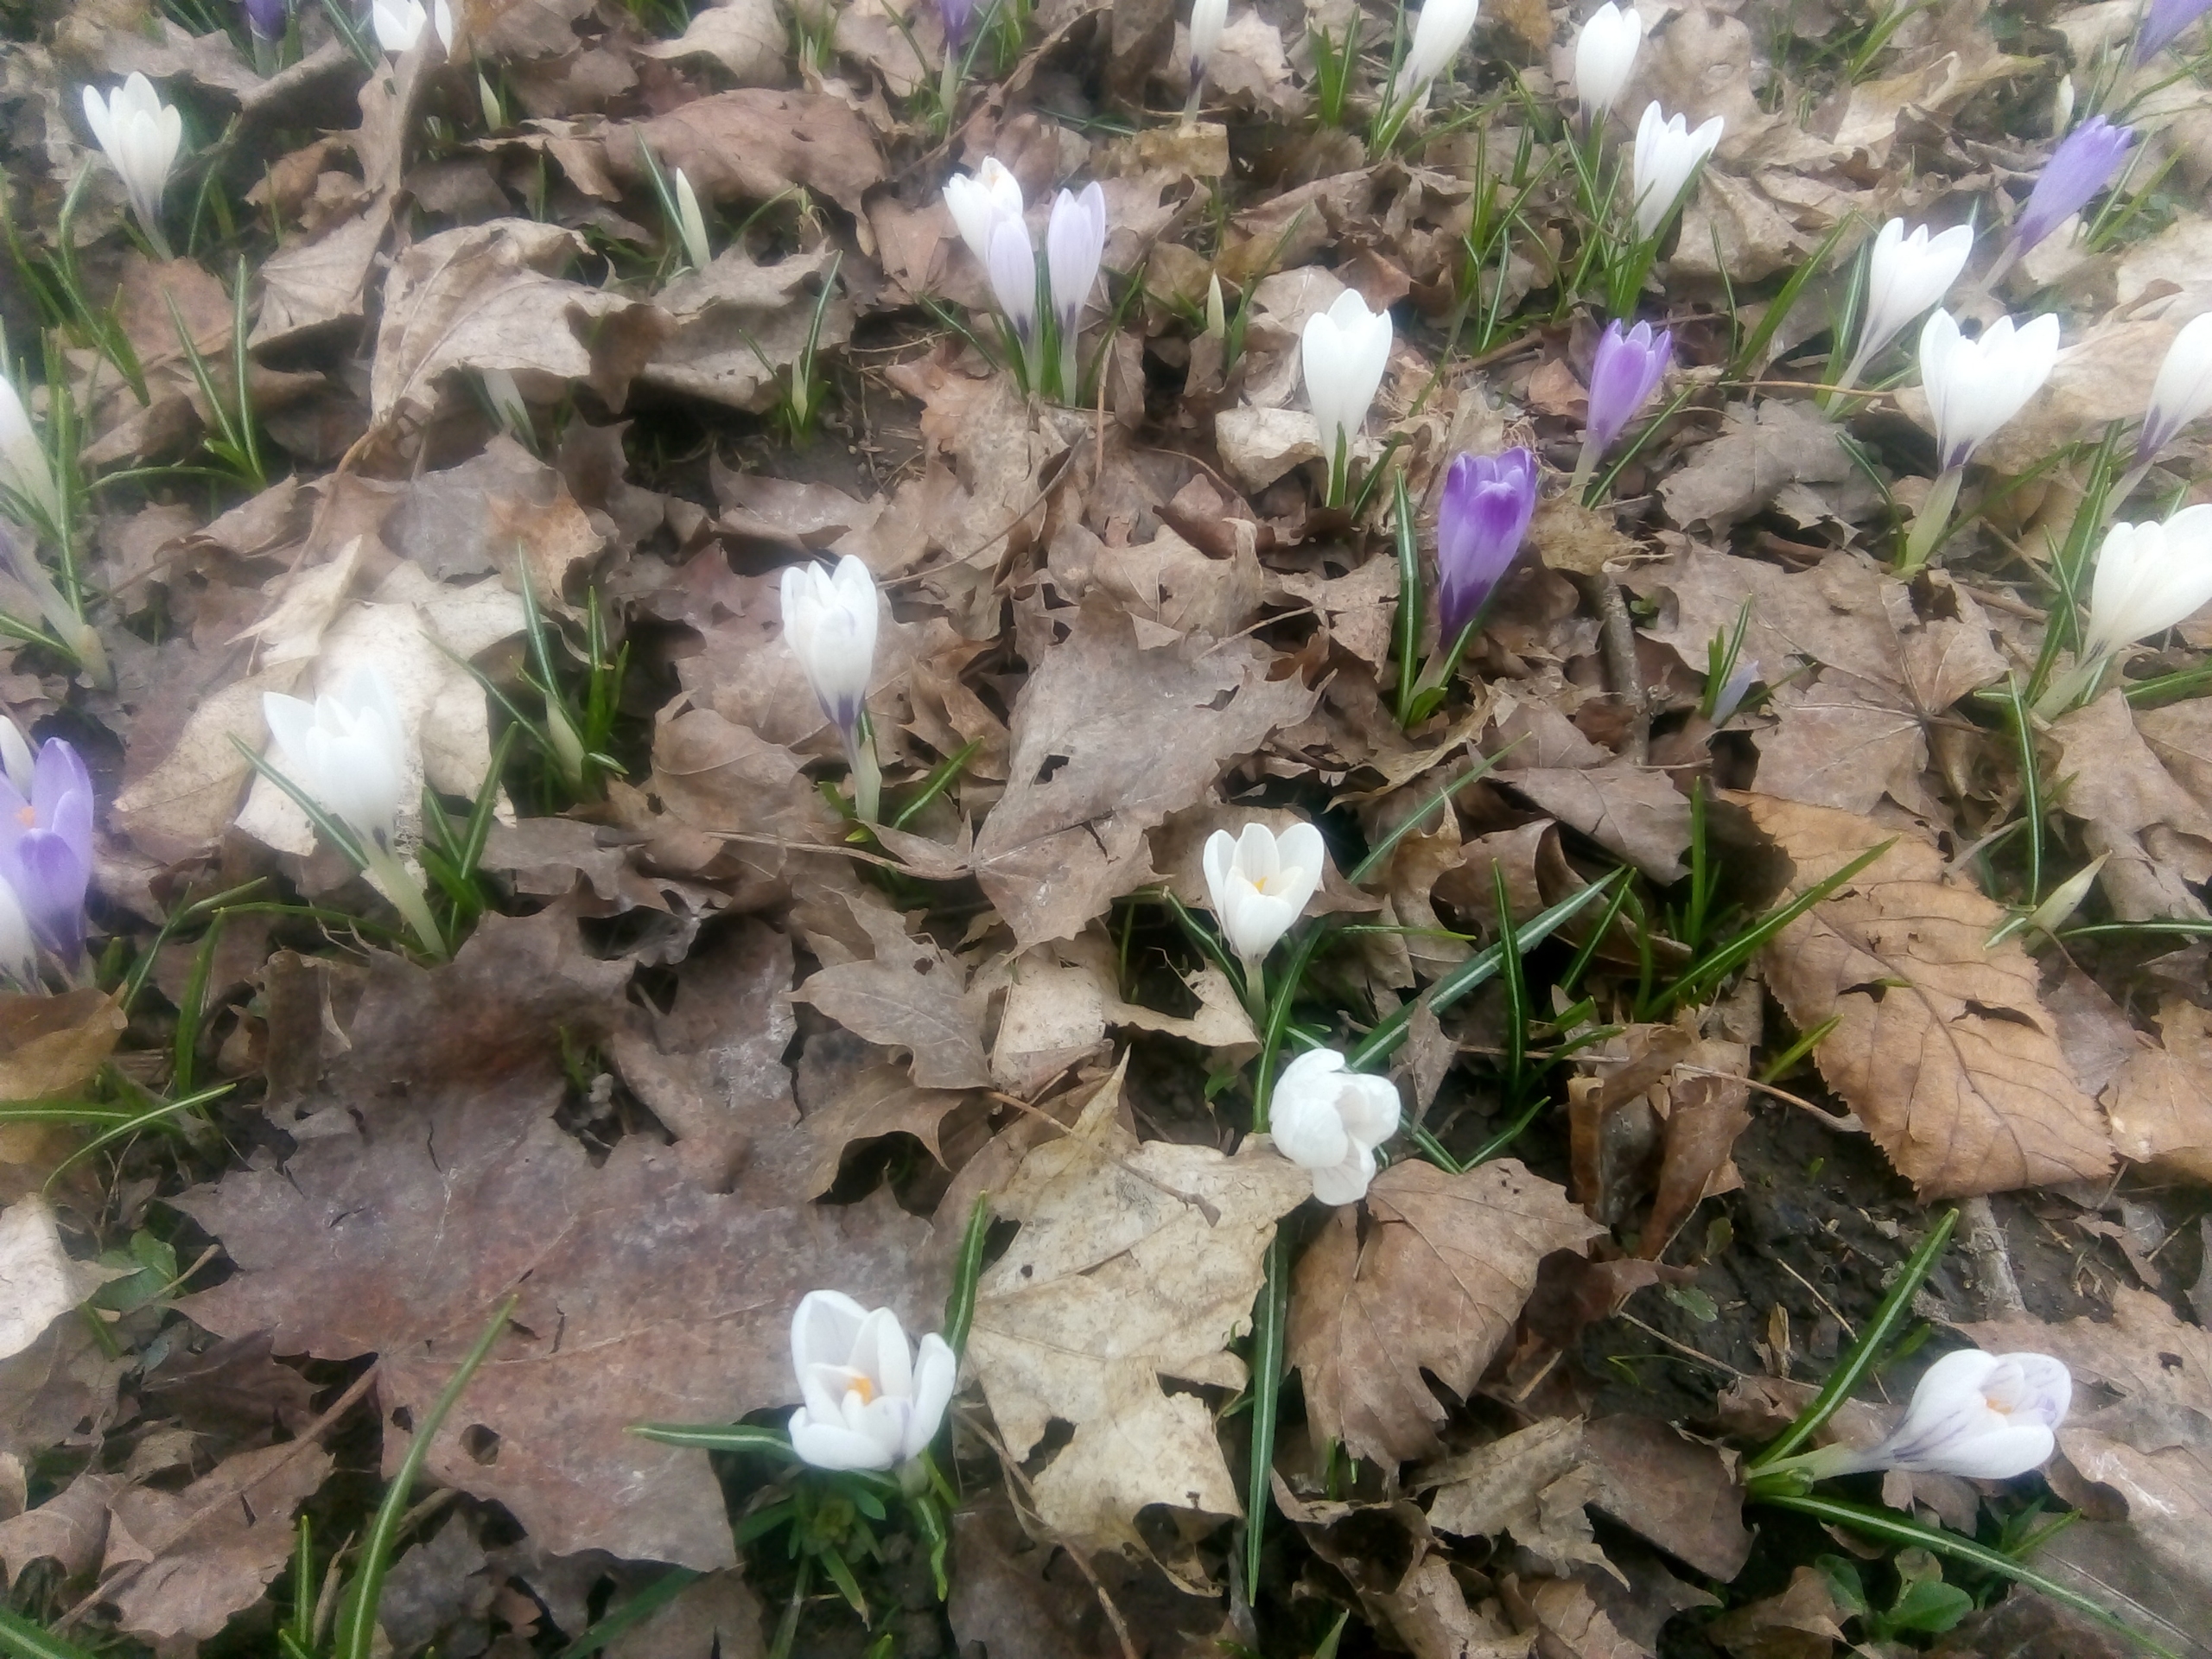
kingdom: Plantae
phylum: Tracheophyta
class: Liliopsida
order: Asparagales
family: Iridaceae
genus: Crocus
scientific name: Crocus vernus
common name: Vår-krokus
